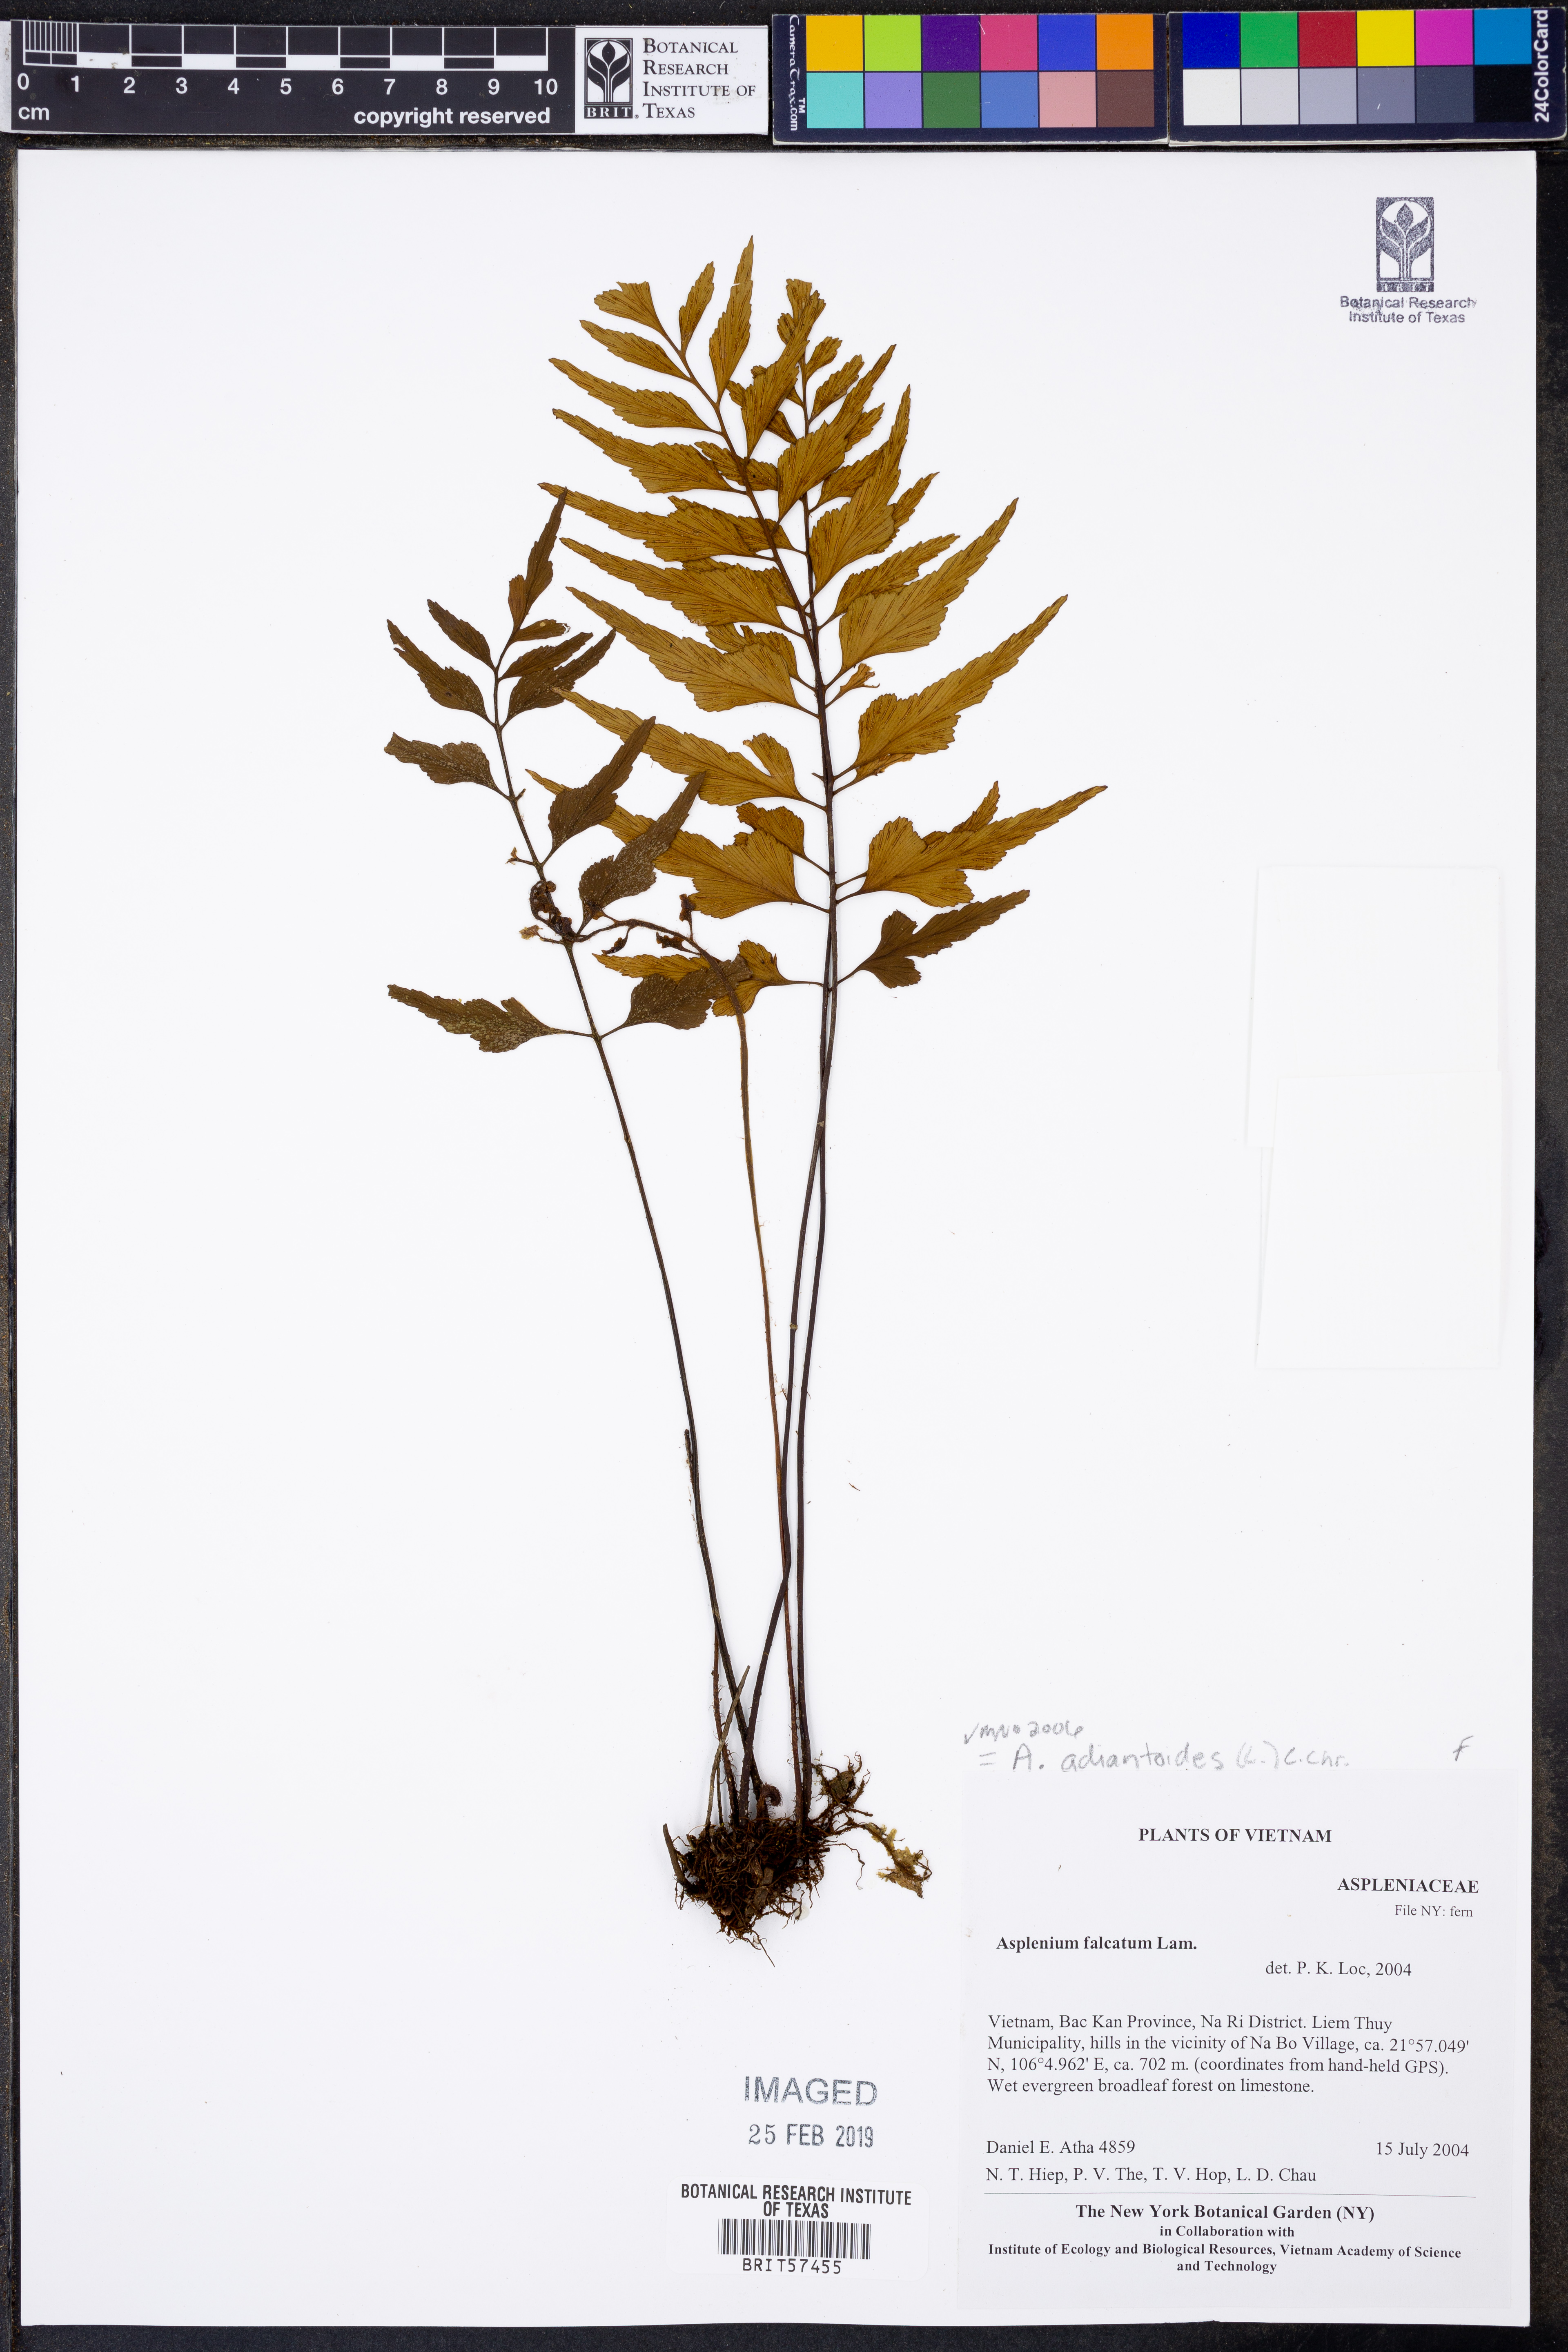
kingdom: Plantae
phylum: Tracheophyta
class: Polypodiopsida
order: Polypodiales
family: Aspleniaceae
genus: Asplenium
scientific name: Asplenium aethiopicum
